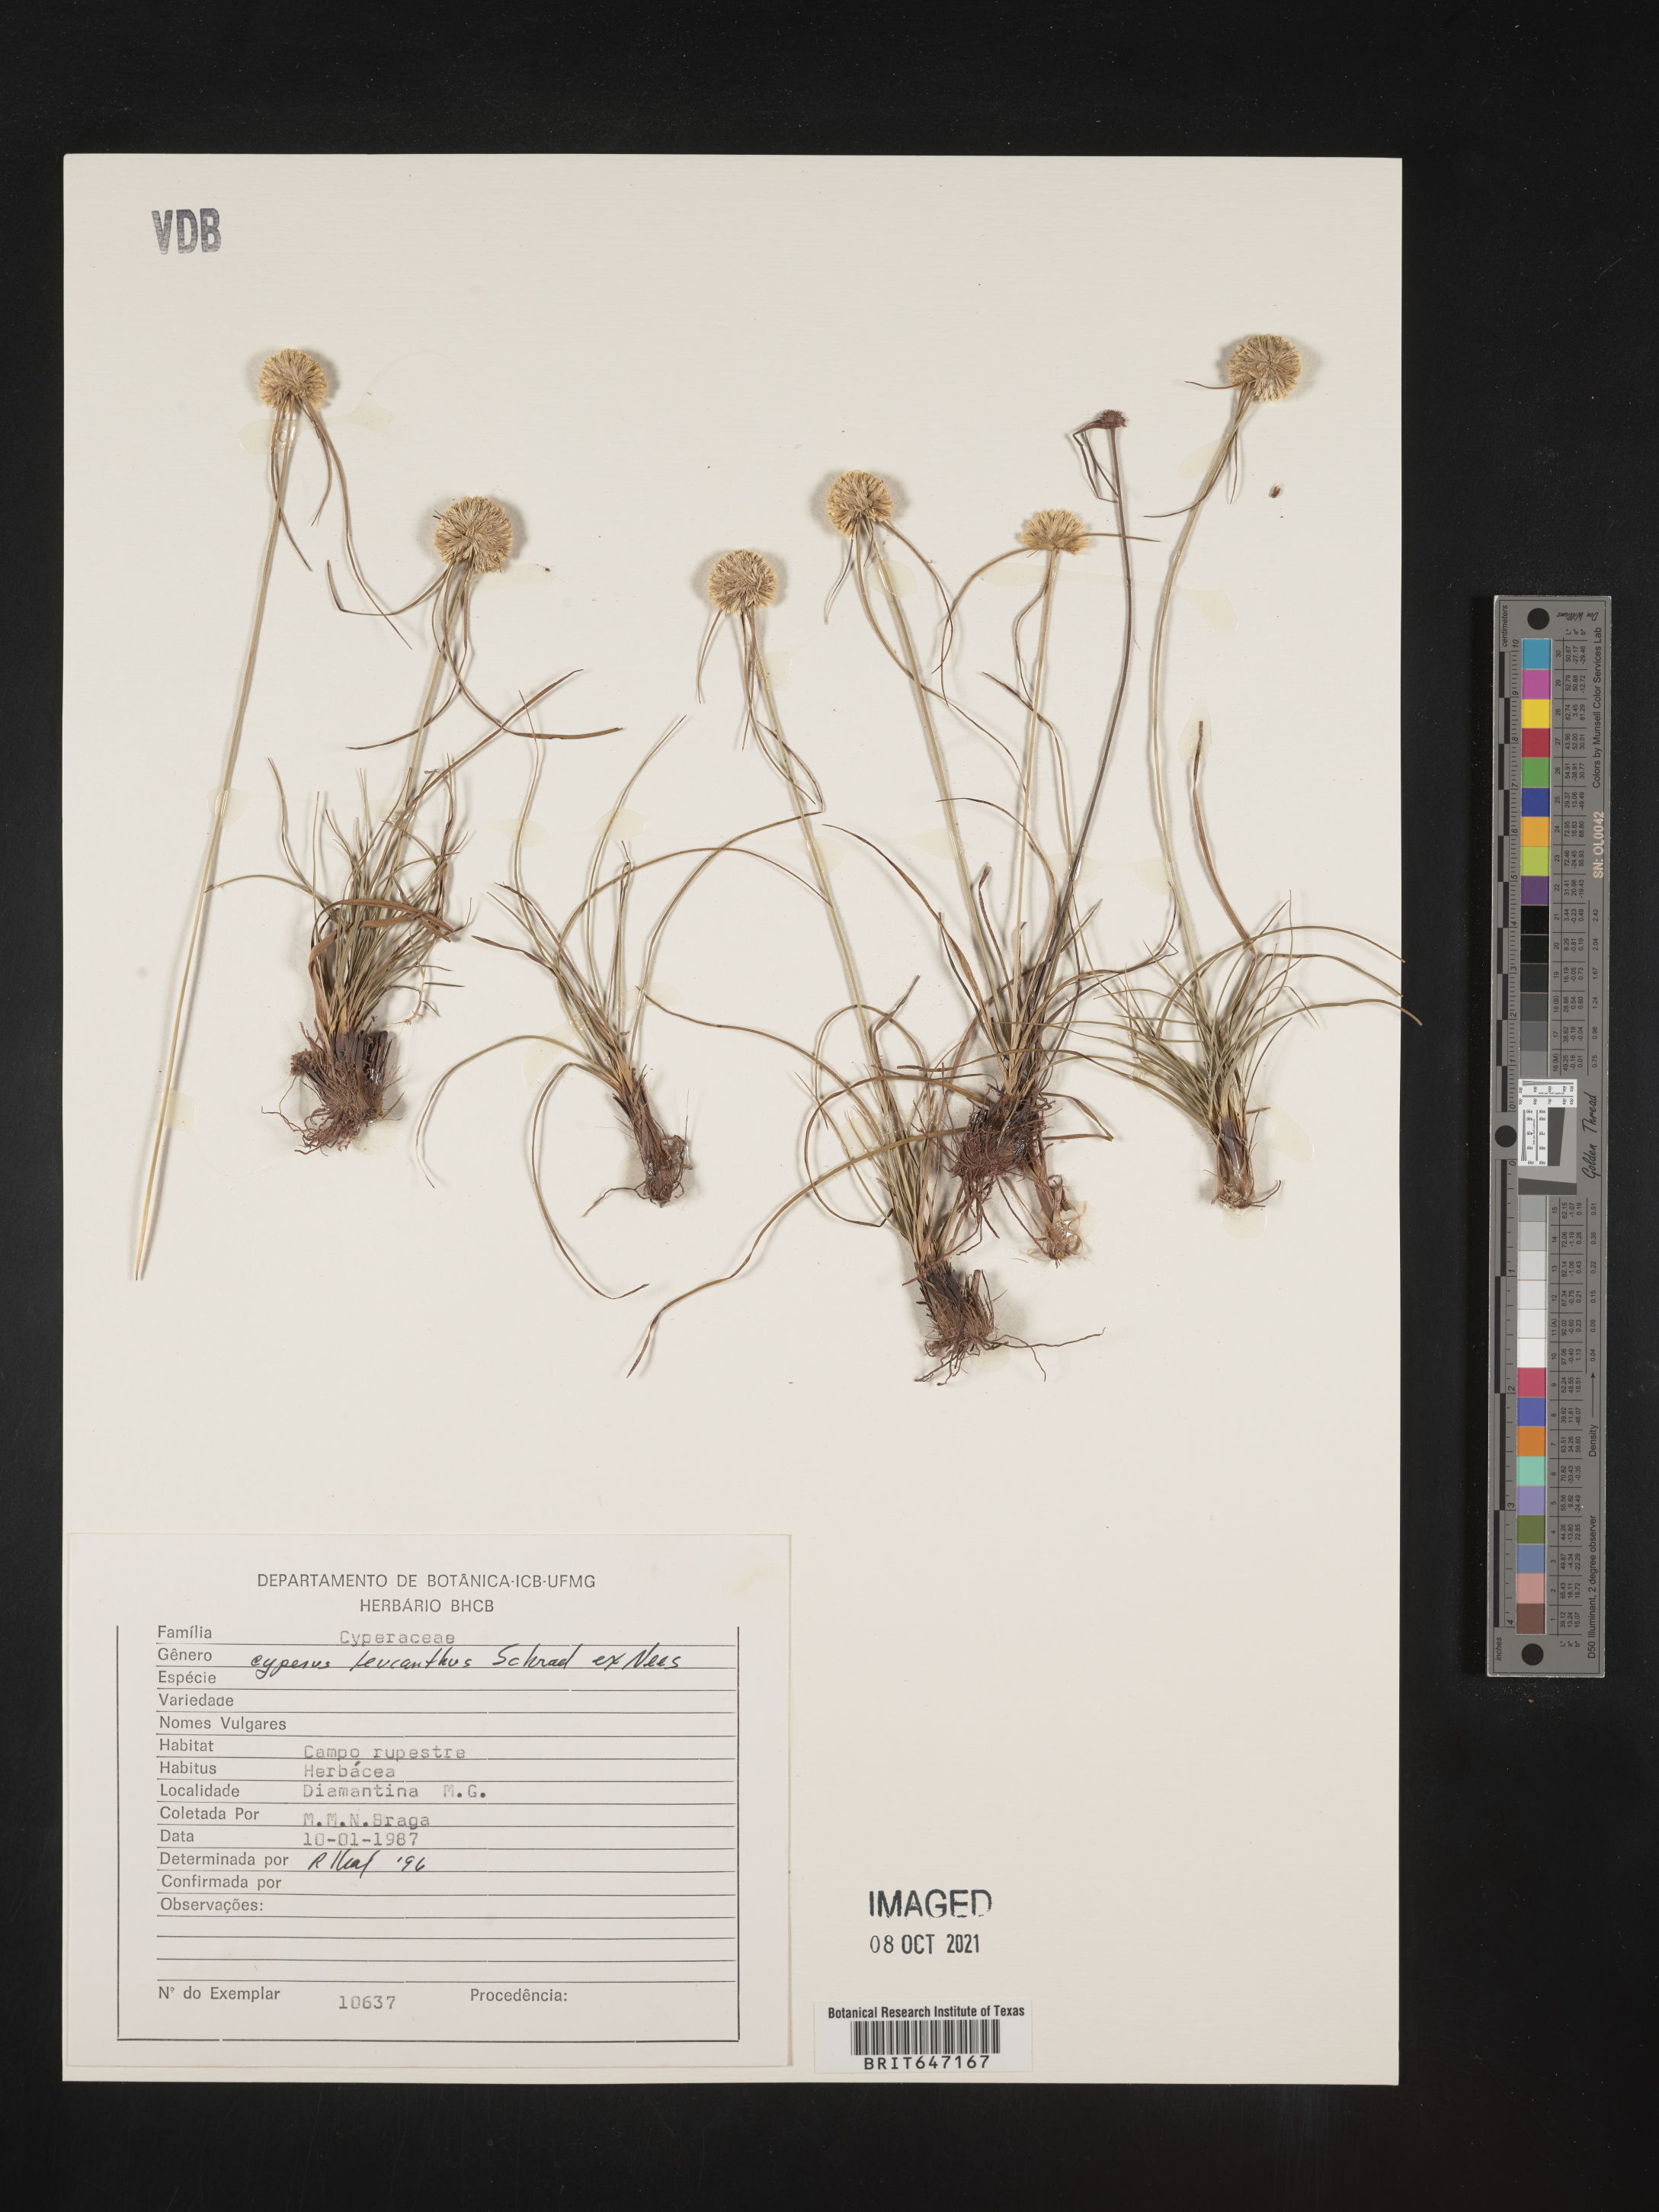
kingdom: Plantae
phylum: Tracheophyta
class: Liliopsida
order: Poales
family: Cyperaceae
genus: Cyperus
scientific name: Cyperus schomburgkianus
